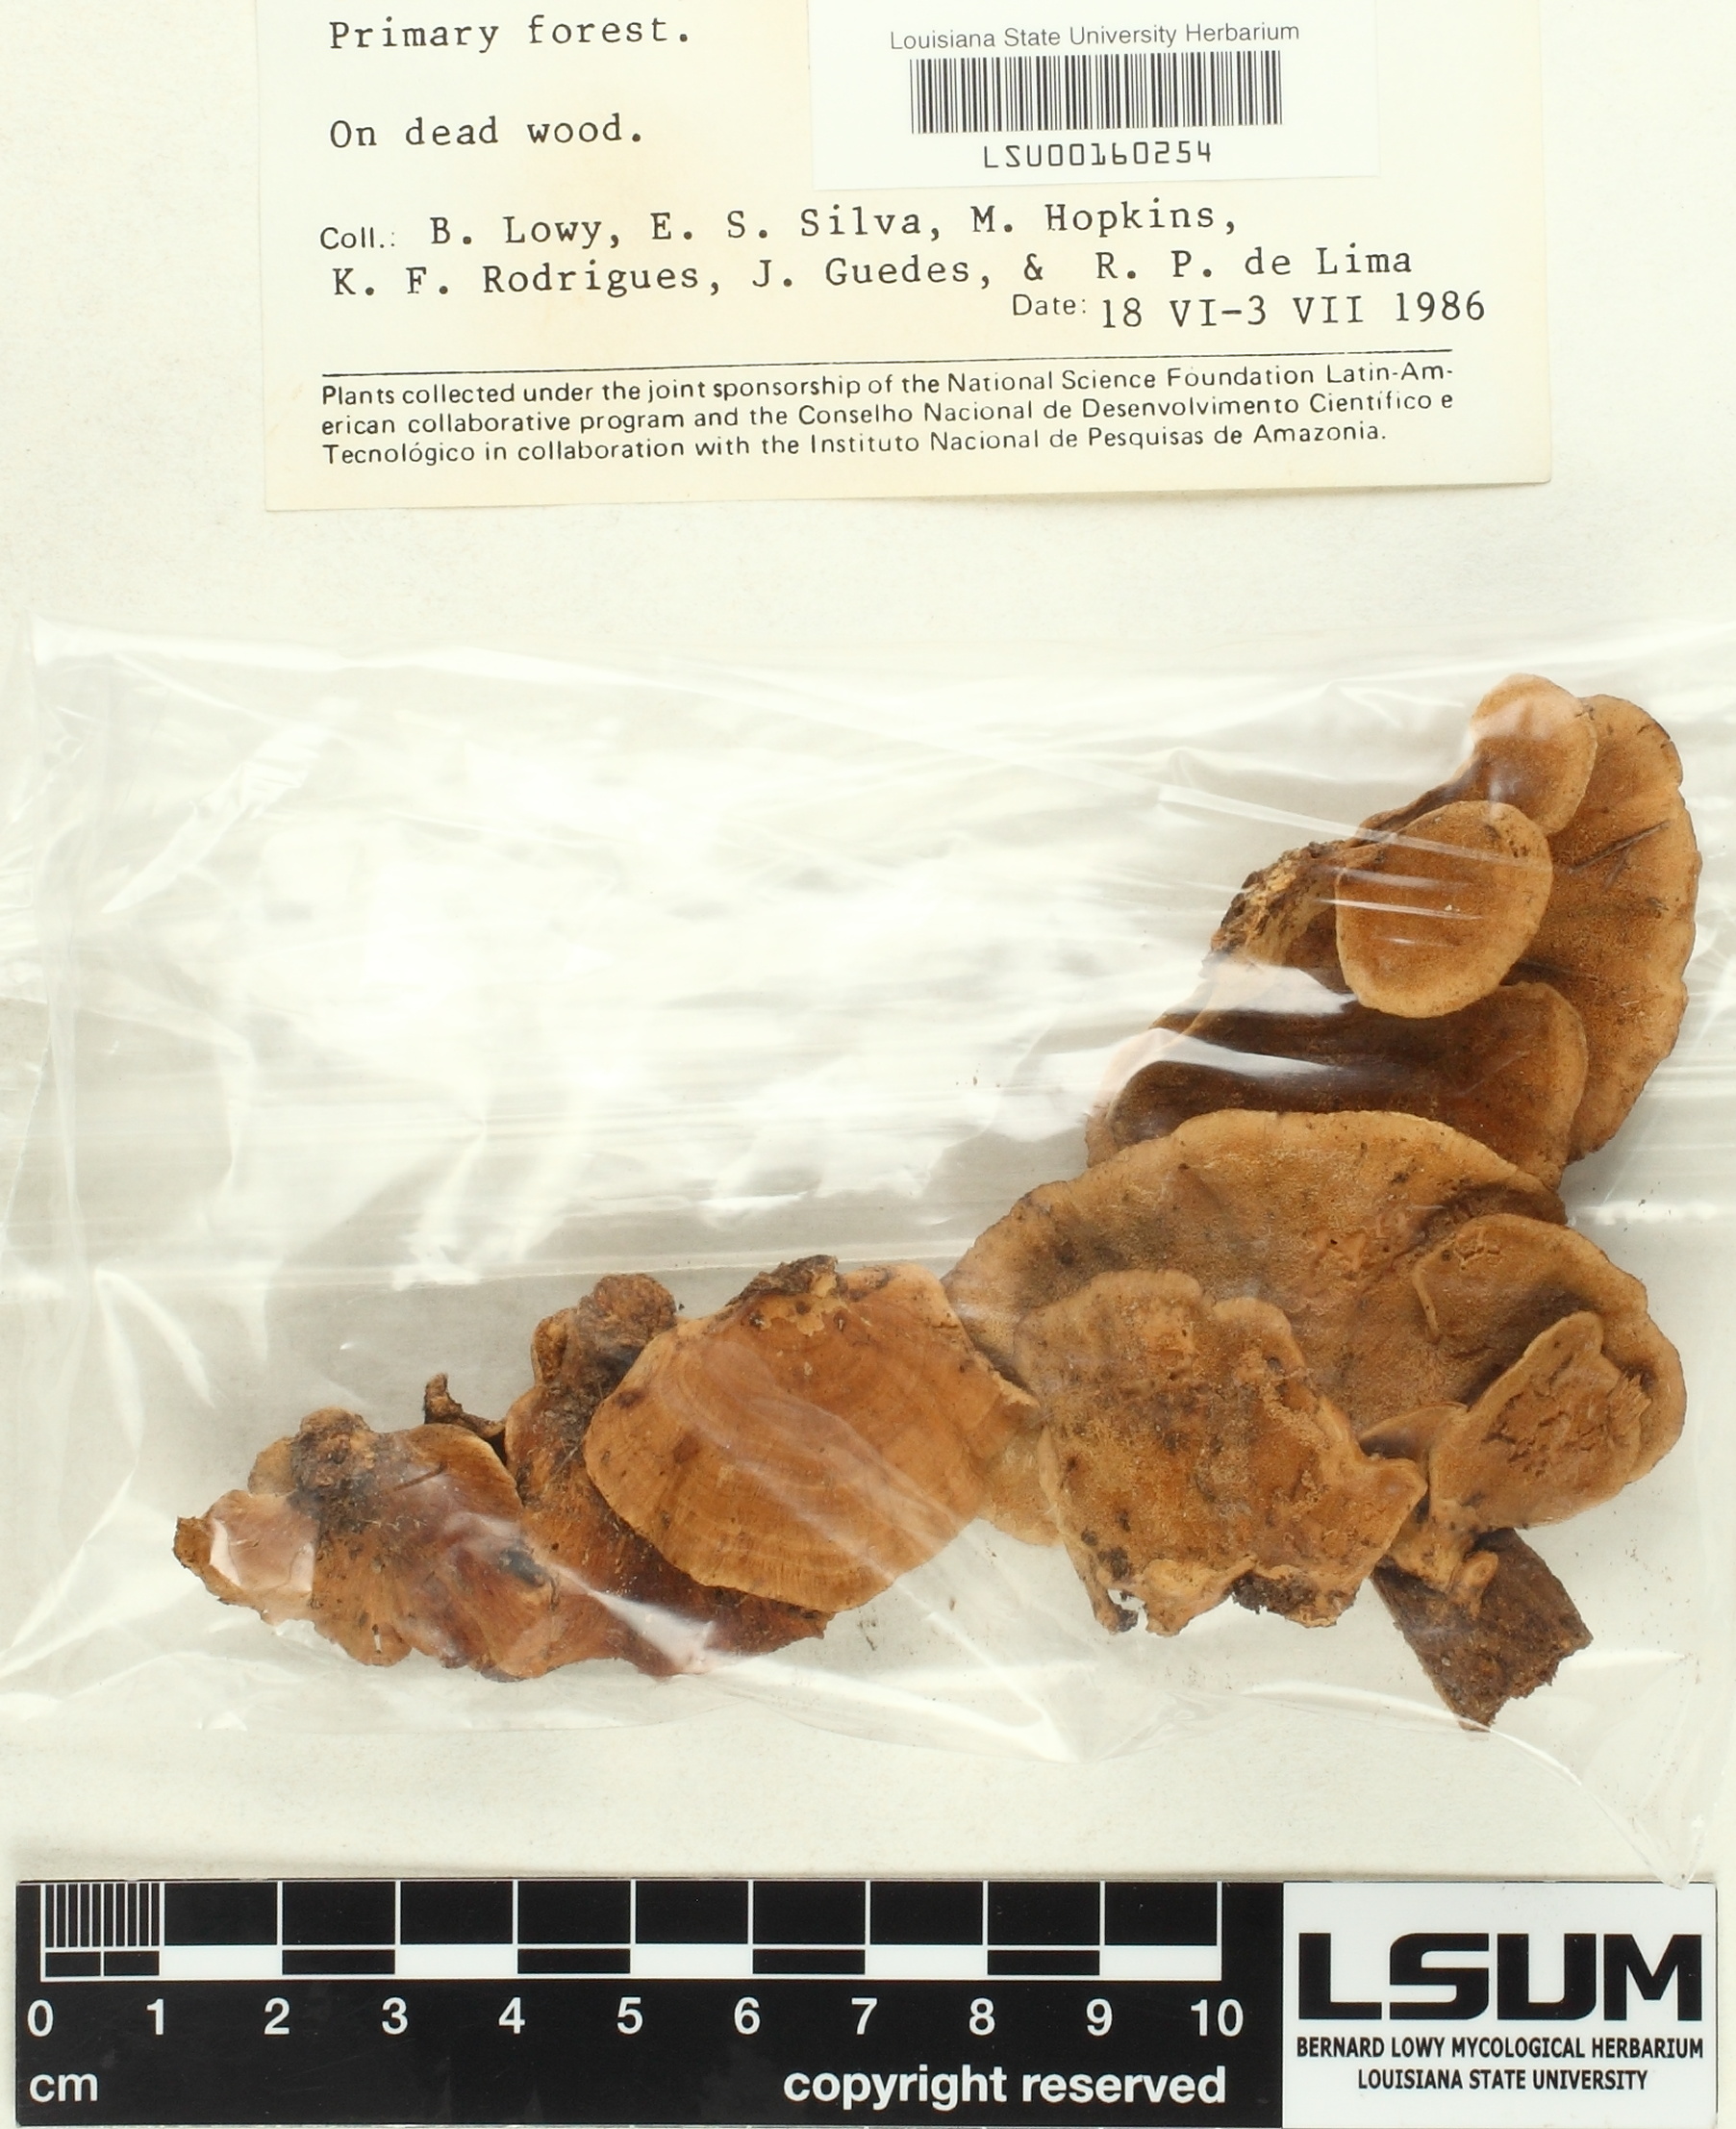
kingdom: Fungi
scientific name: Fungi
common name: Fungi
